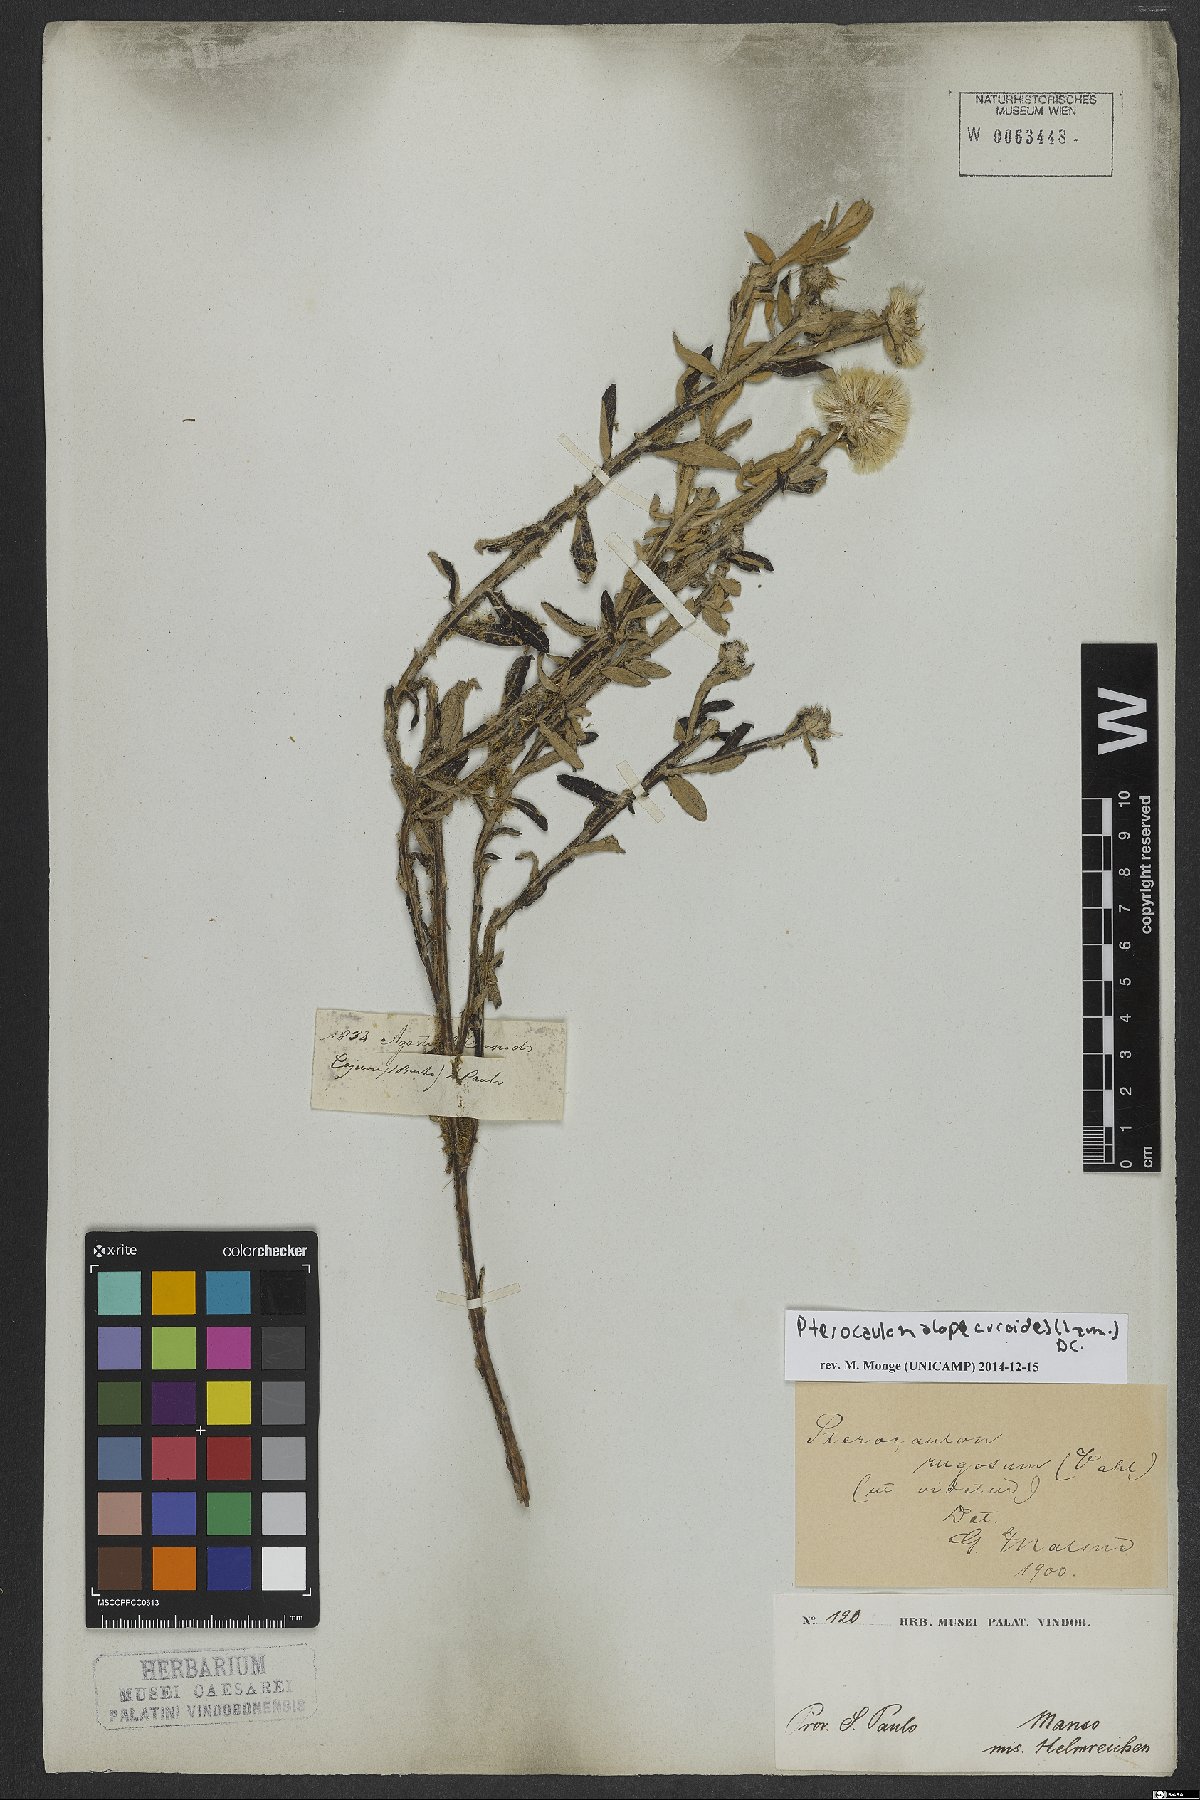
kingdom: Plantae
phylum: Tracheophyta
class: Magnoliopsida
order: Asterales
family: Asteraceae
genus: Pterocaulon
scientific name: Pterocaulon alopecuroides
